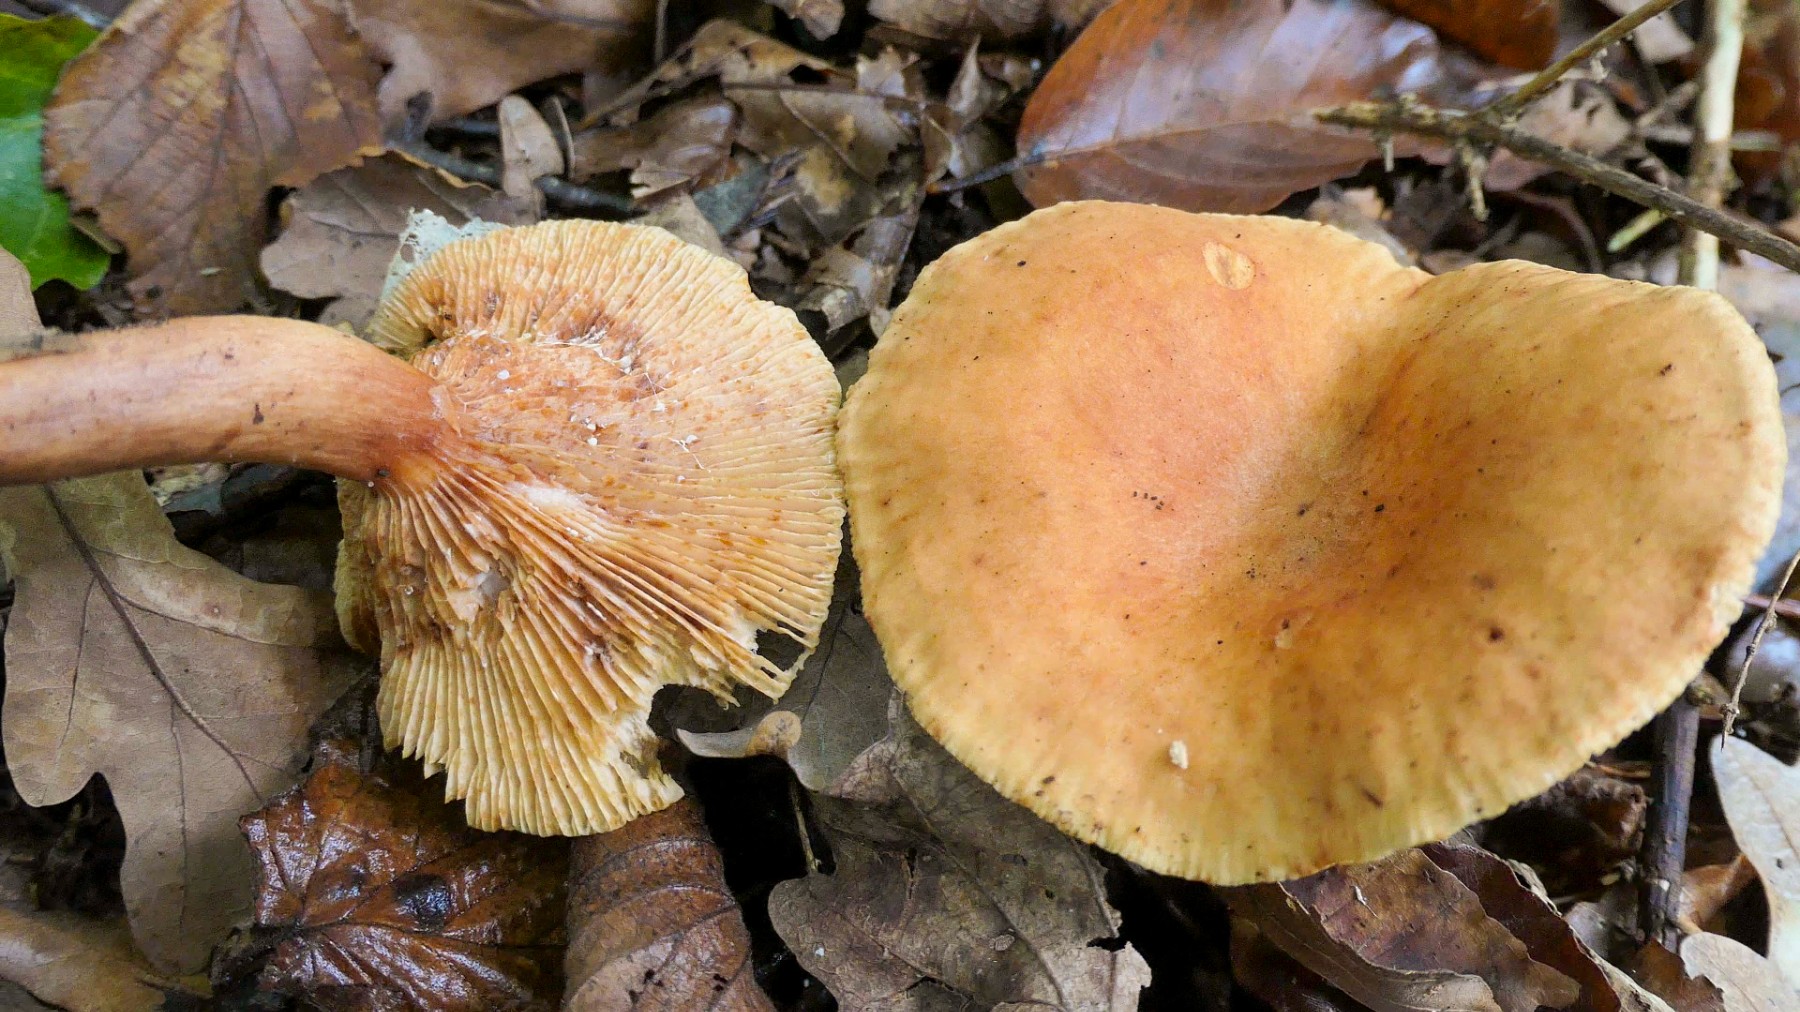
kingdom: Fungi
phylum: Basidiomycota
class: Agaricomycetes
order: Russulales
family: Russulaceae
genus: Lactarius
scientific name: Lactarius fulvissimus
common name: ræve-mælkehat
